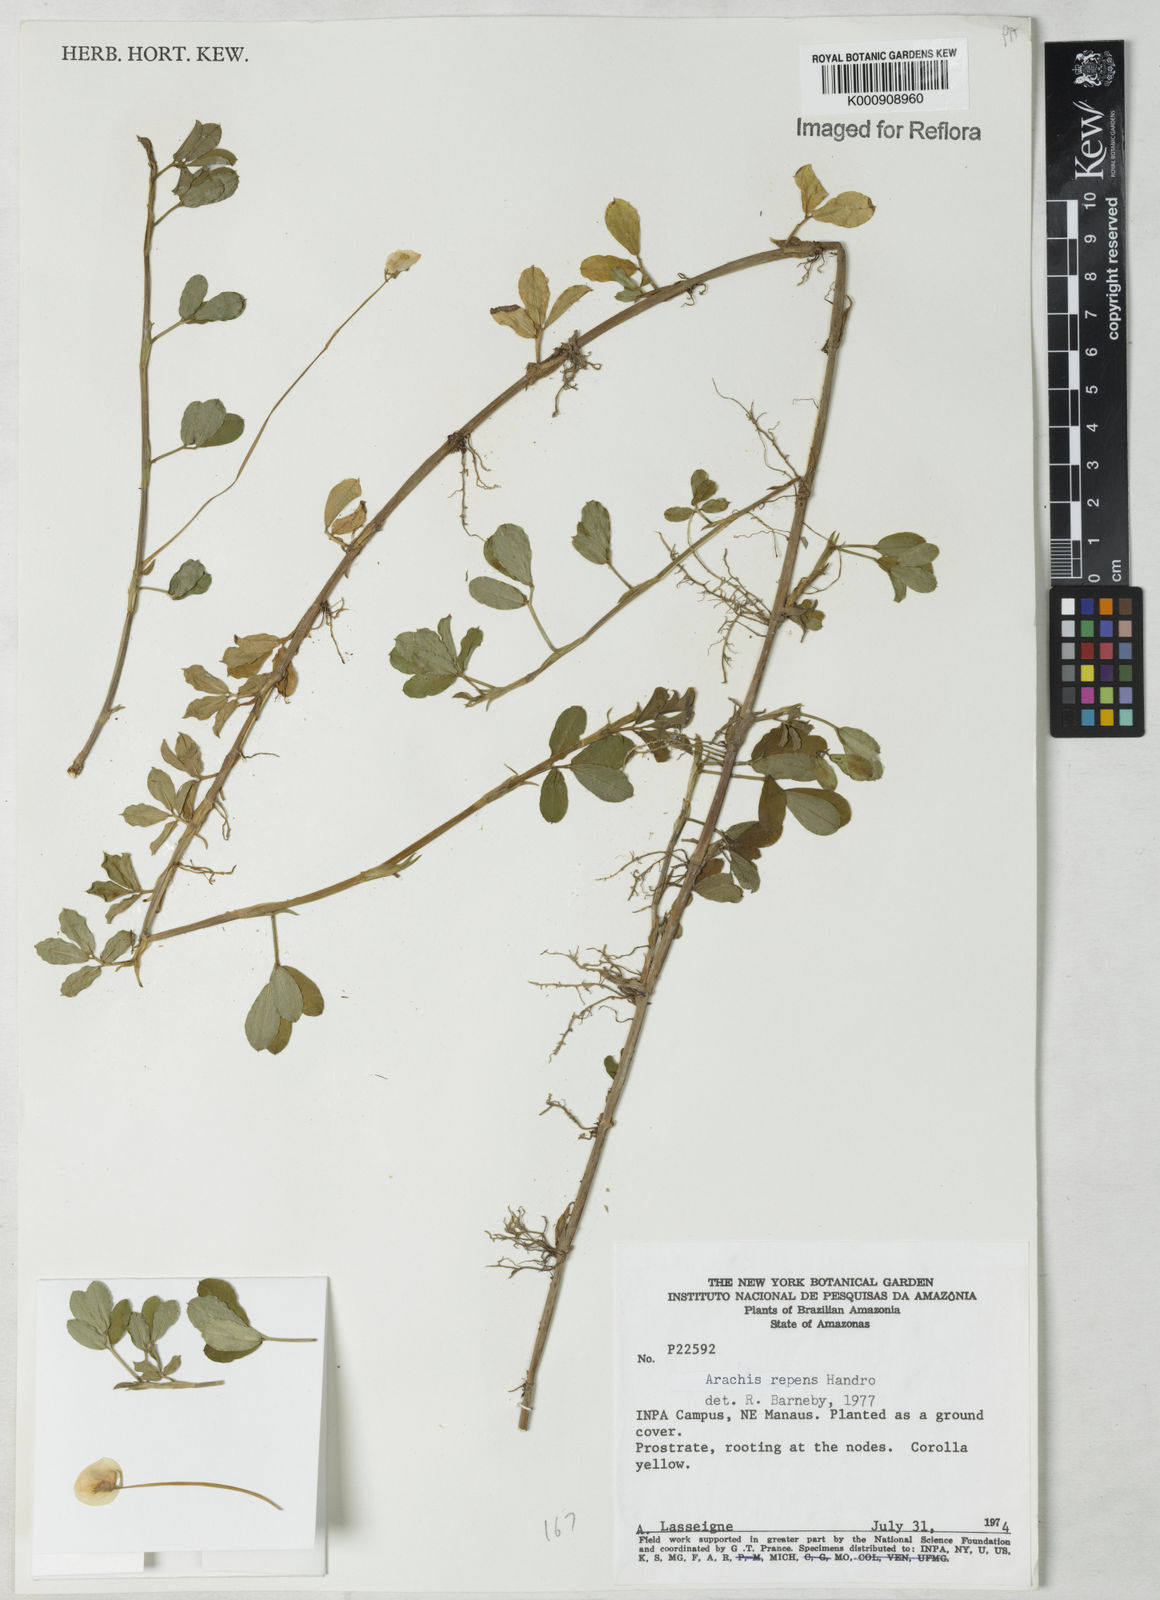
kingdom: Plantae
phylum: Tracheophyta
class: Magnoliopsida
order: Fabales
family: Fabaceae
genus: Arachis
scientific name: Arachis repens
